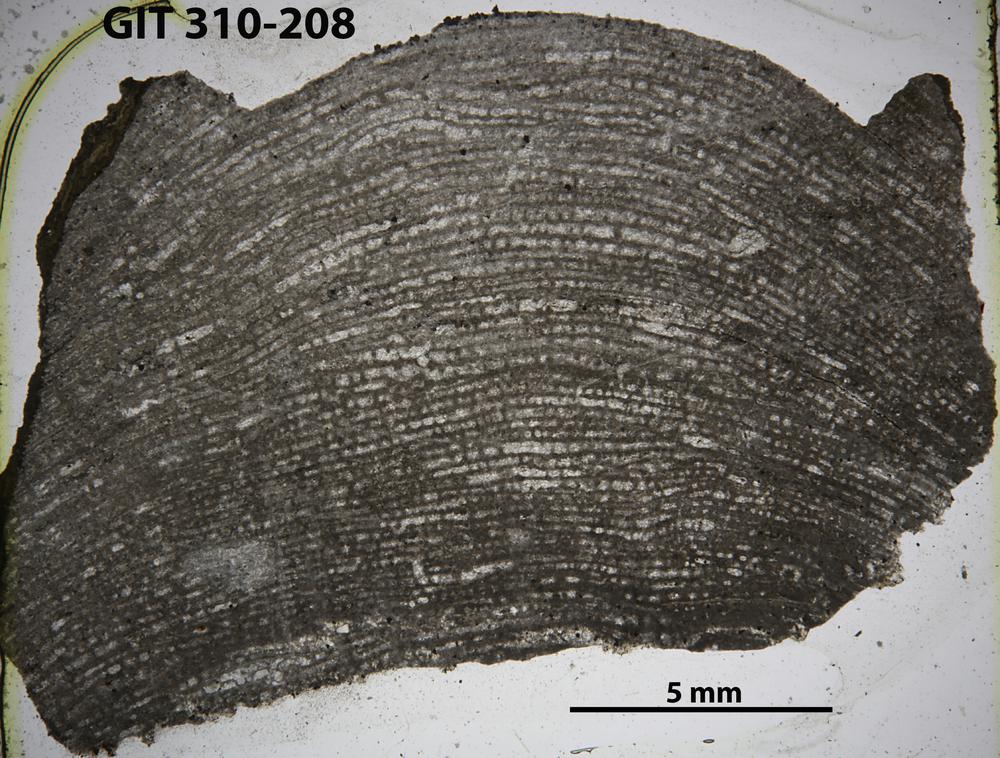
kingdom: Animalia
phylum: Porifera
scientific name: Porifera
